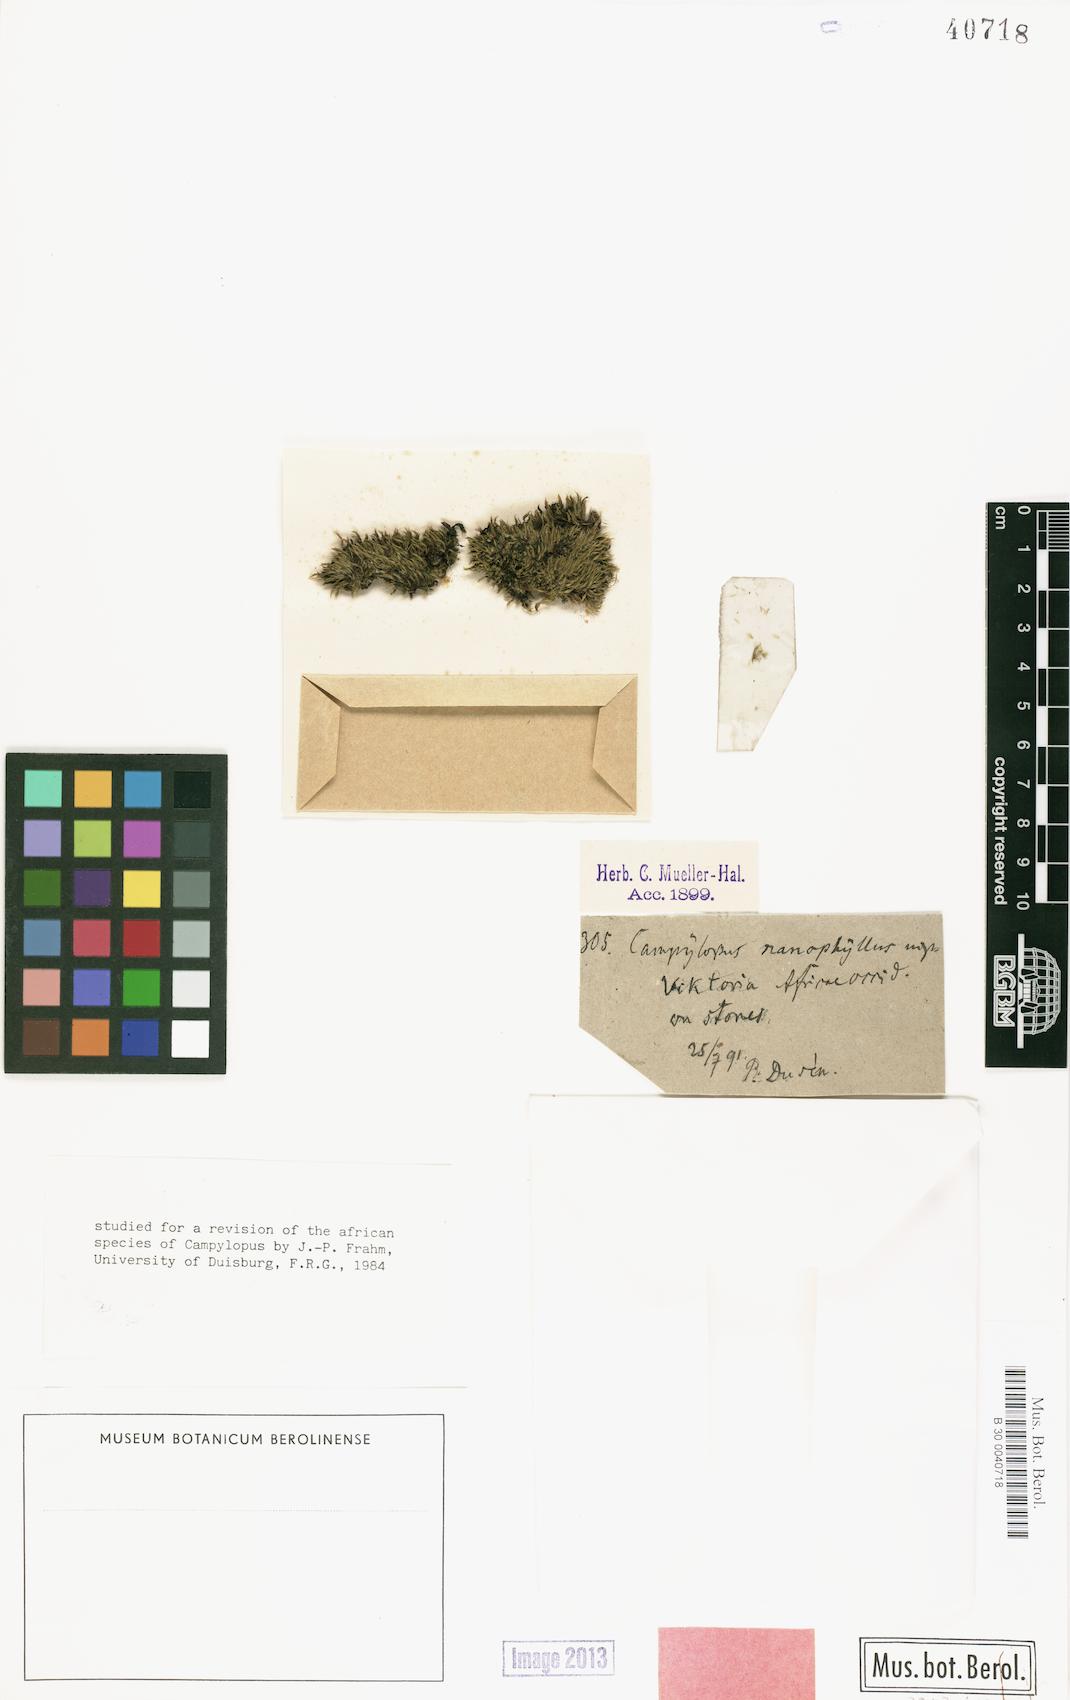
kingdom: Plantae
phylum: Bryophyta
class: Bryopsida
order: Dicranales
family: Leucobryaceae
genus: Campylopus
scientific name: Campylopus nanophyllus
